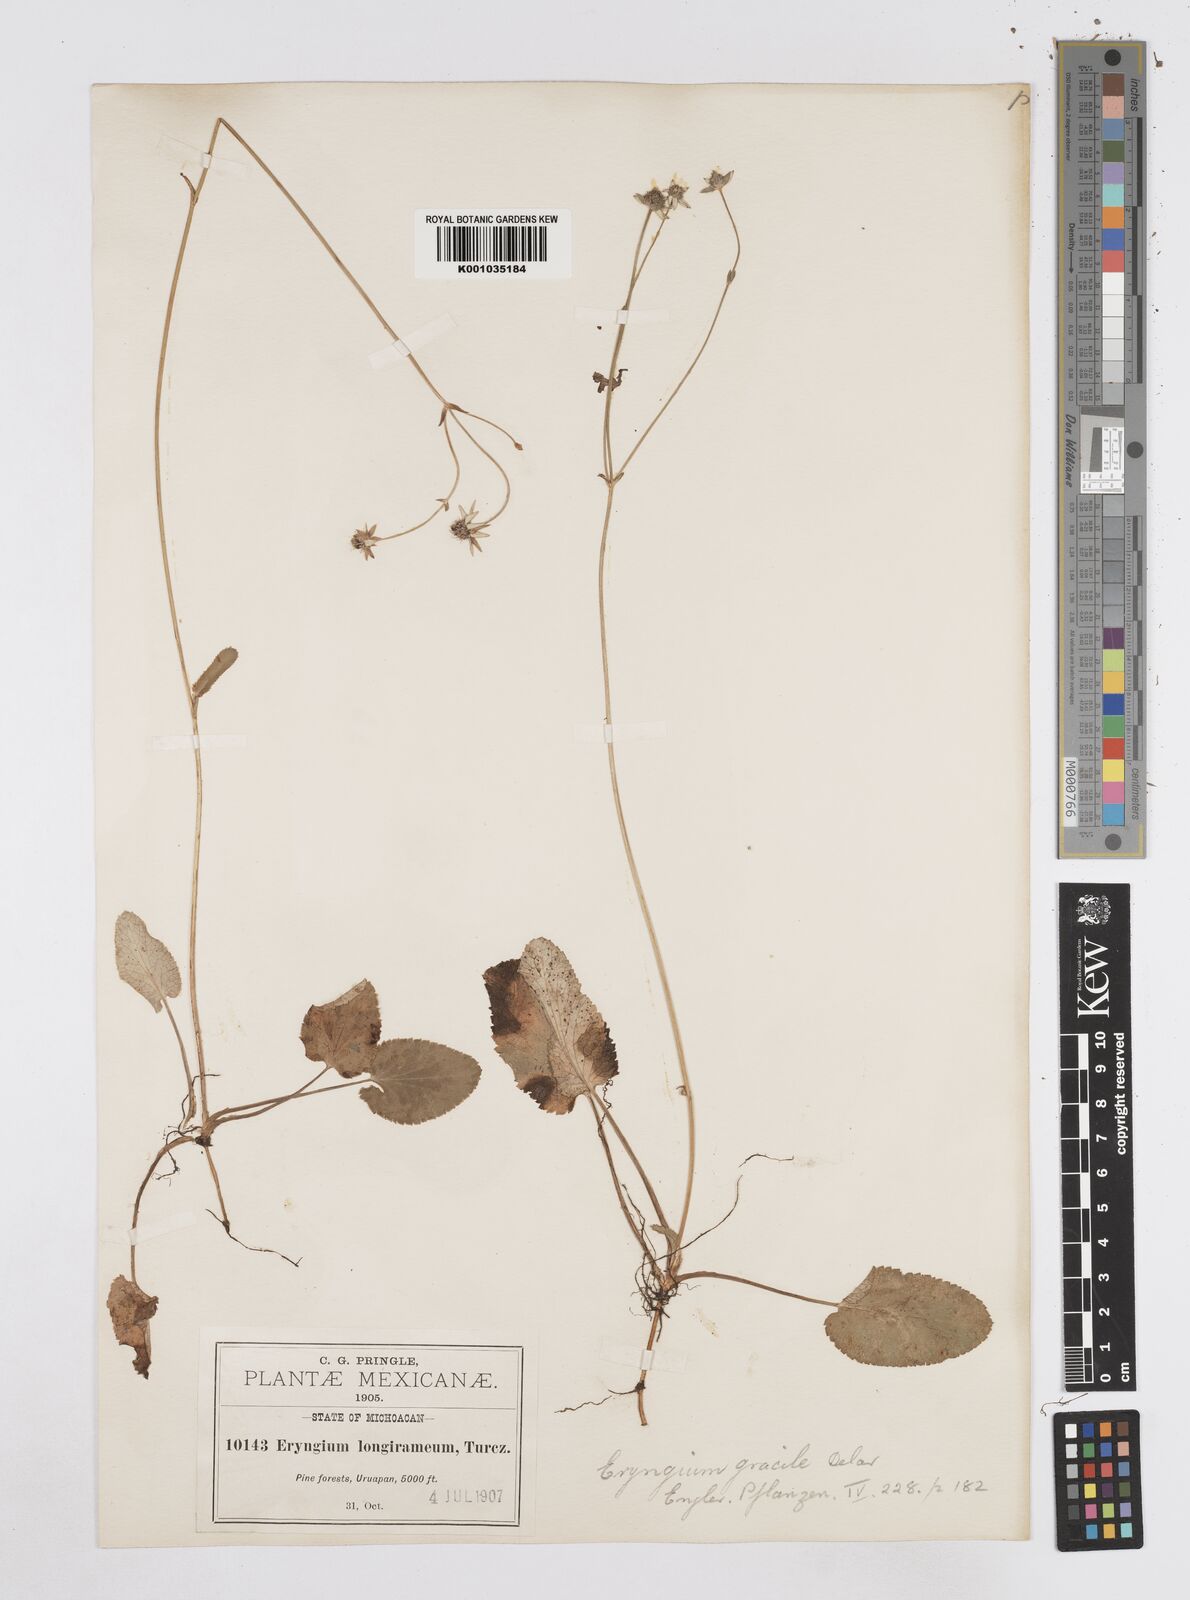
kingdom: Plantae
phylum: Tracheophyta
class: Magnoliopsida
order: Apiales
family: Apiaceae
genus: Eryngium
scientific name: Eryngium gracile
